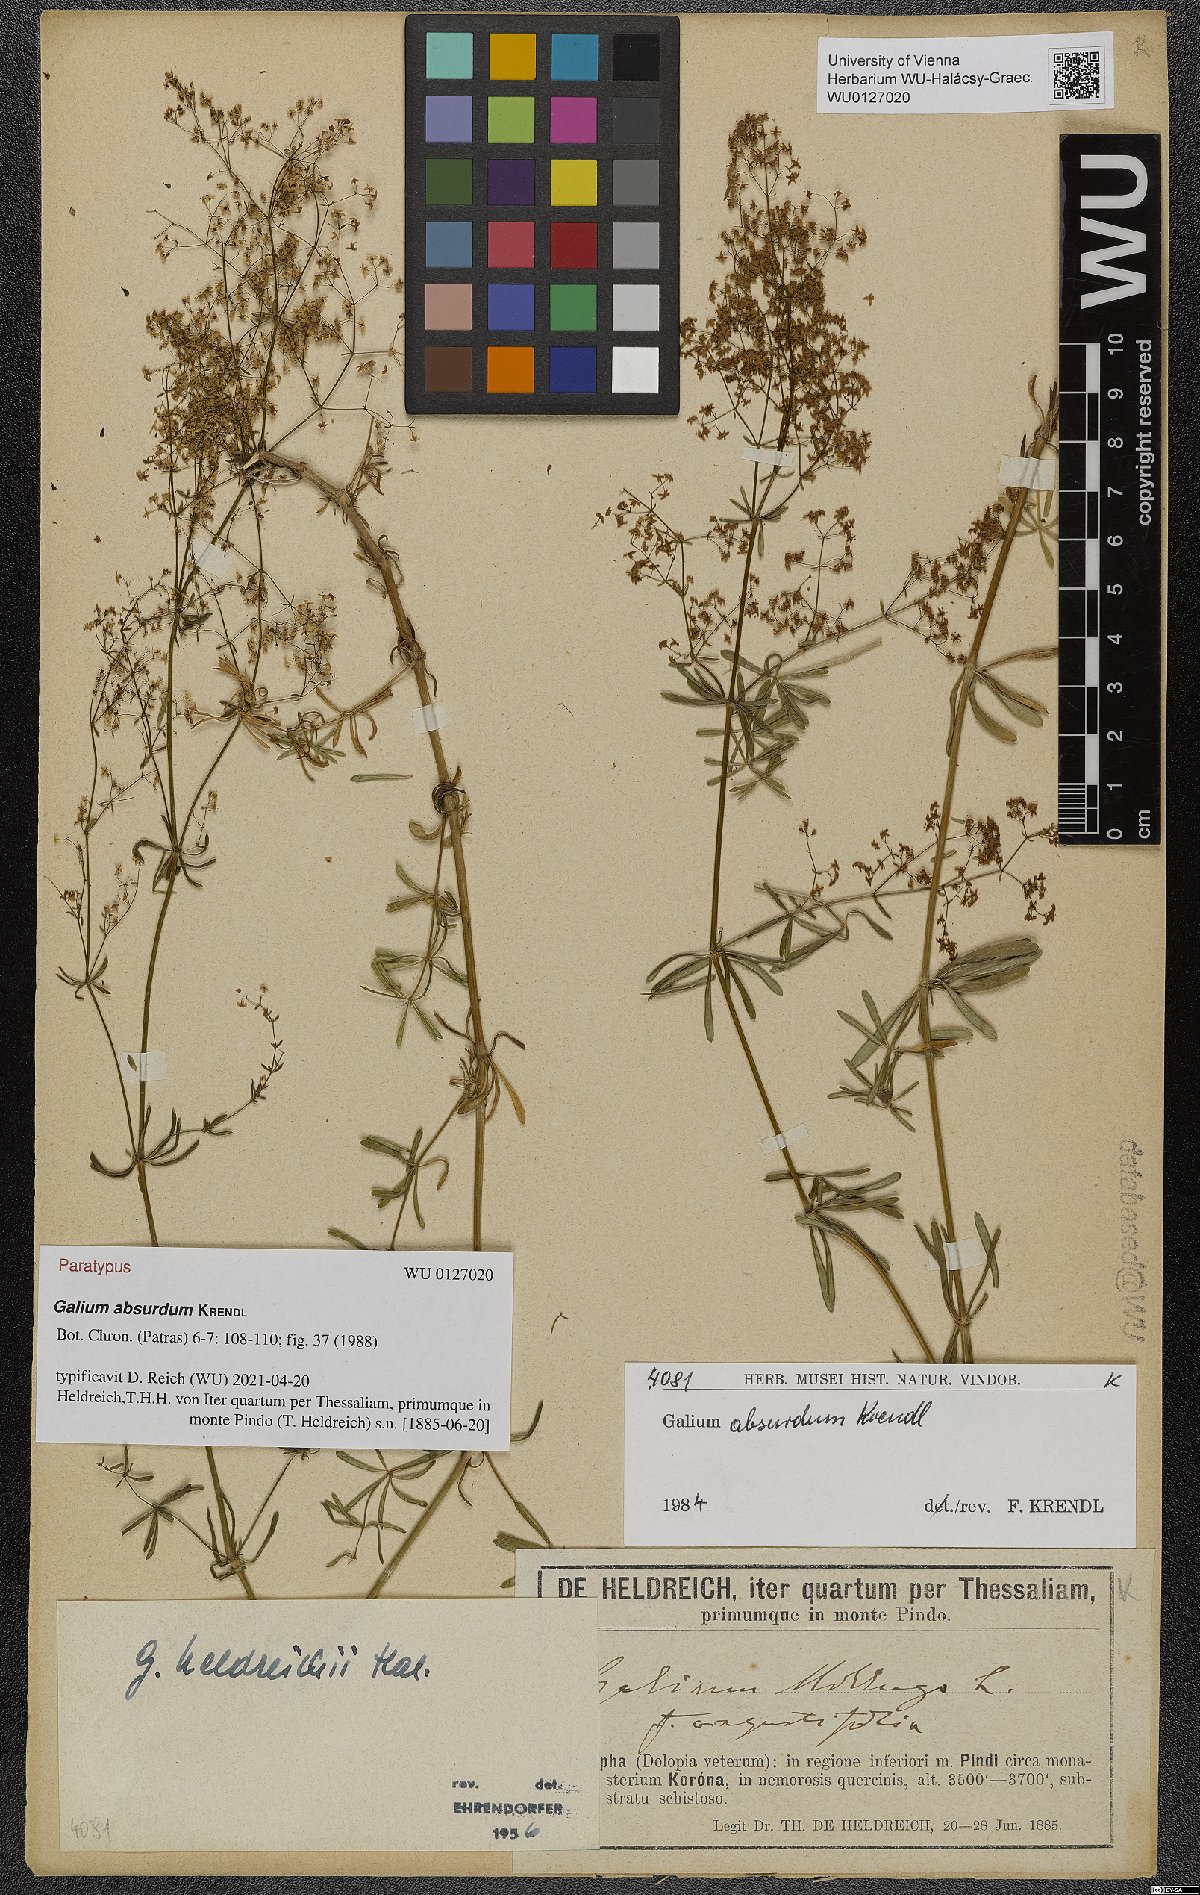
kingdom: Plantae
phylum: Tracheophyta
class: Magnoliopsida
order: Gentianales
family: Rubiaceae
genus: Galium
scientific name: Galium absurdum
